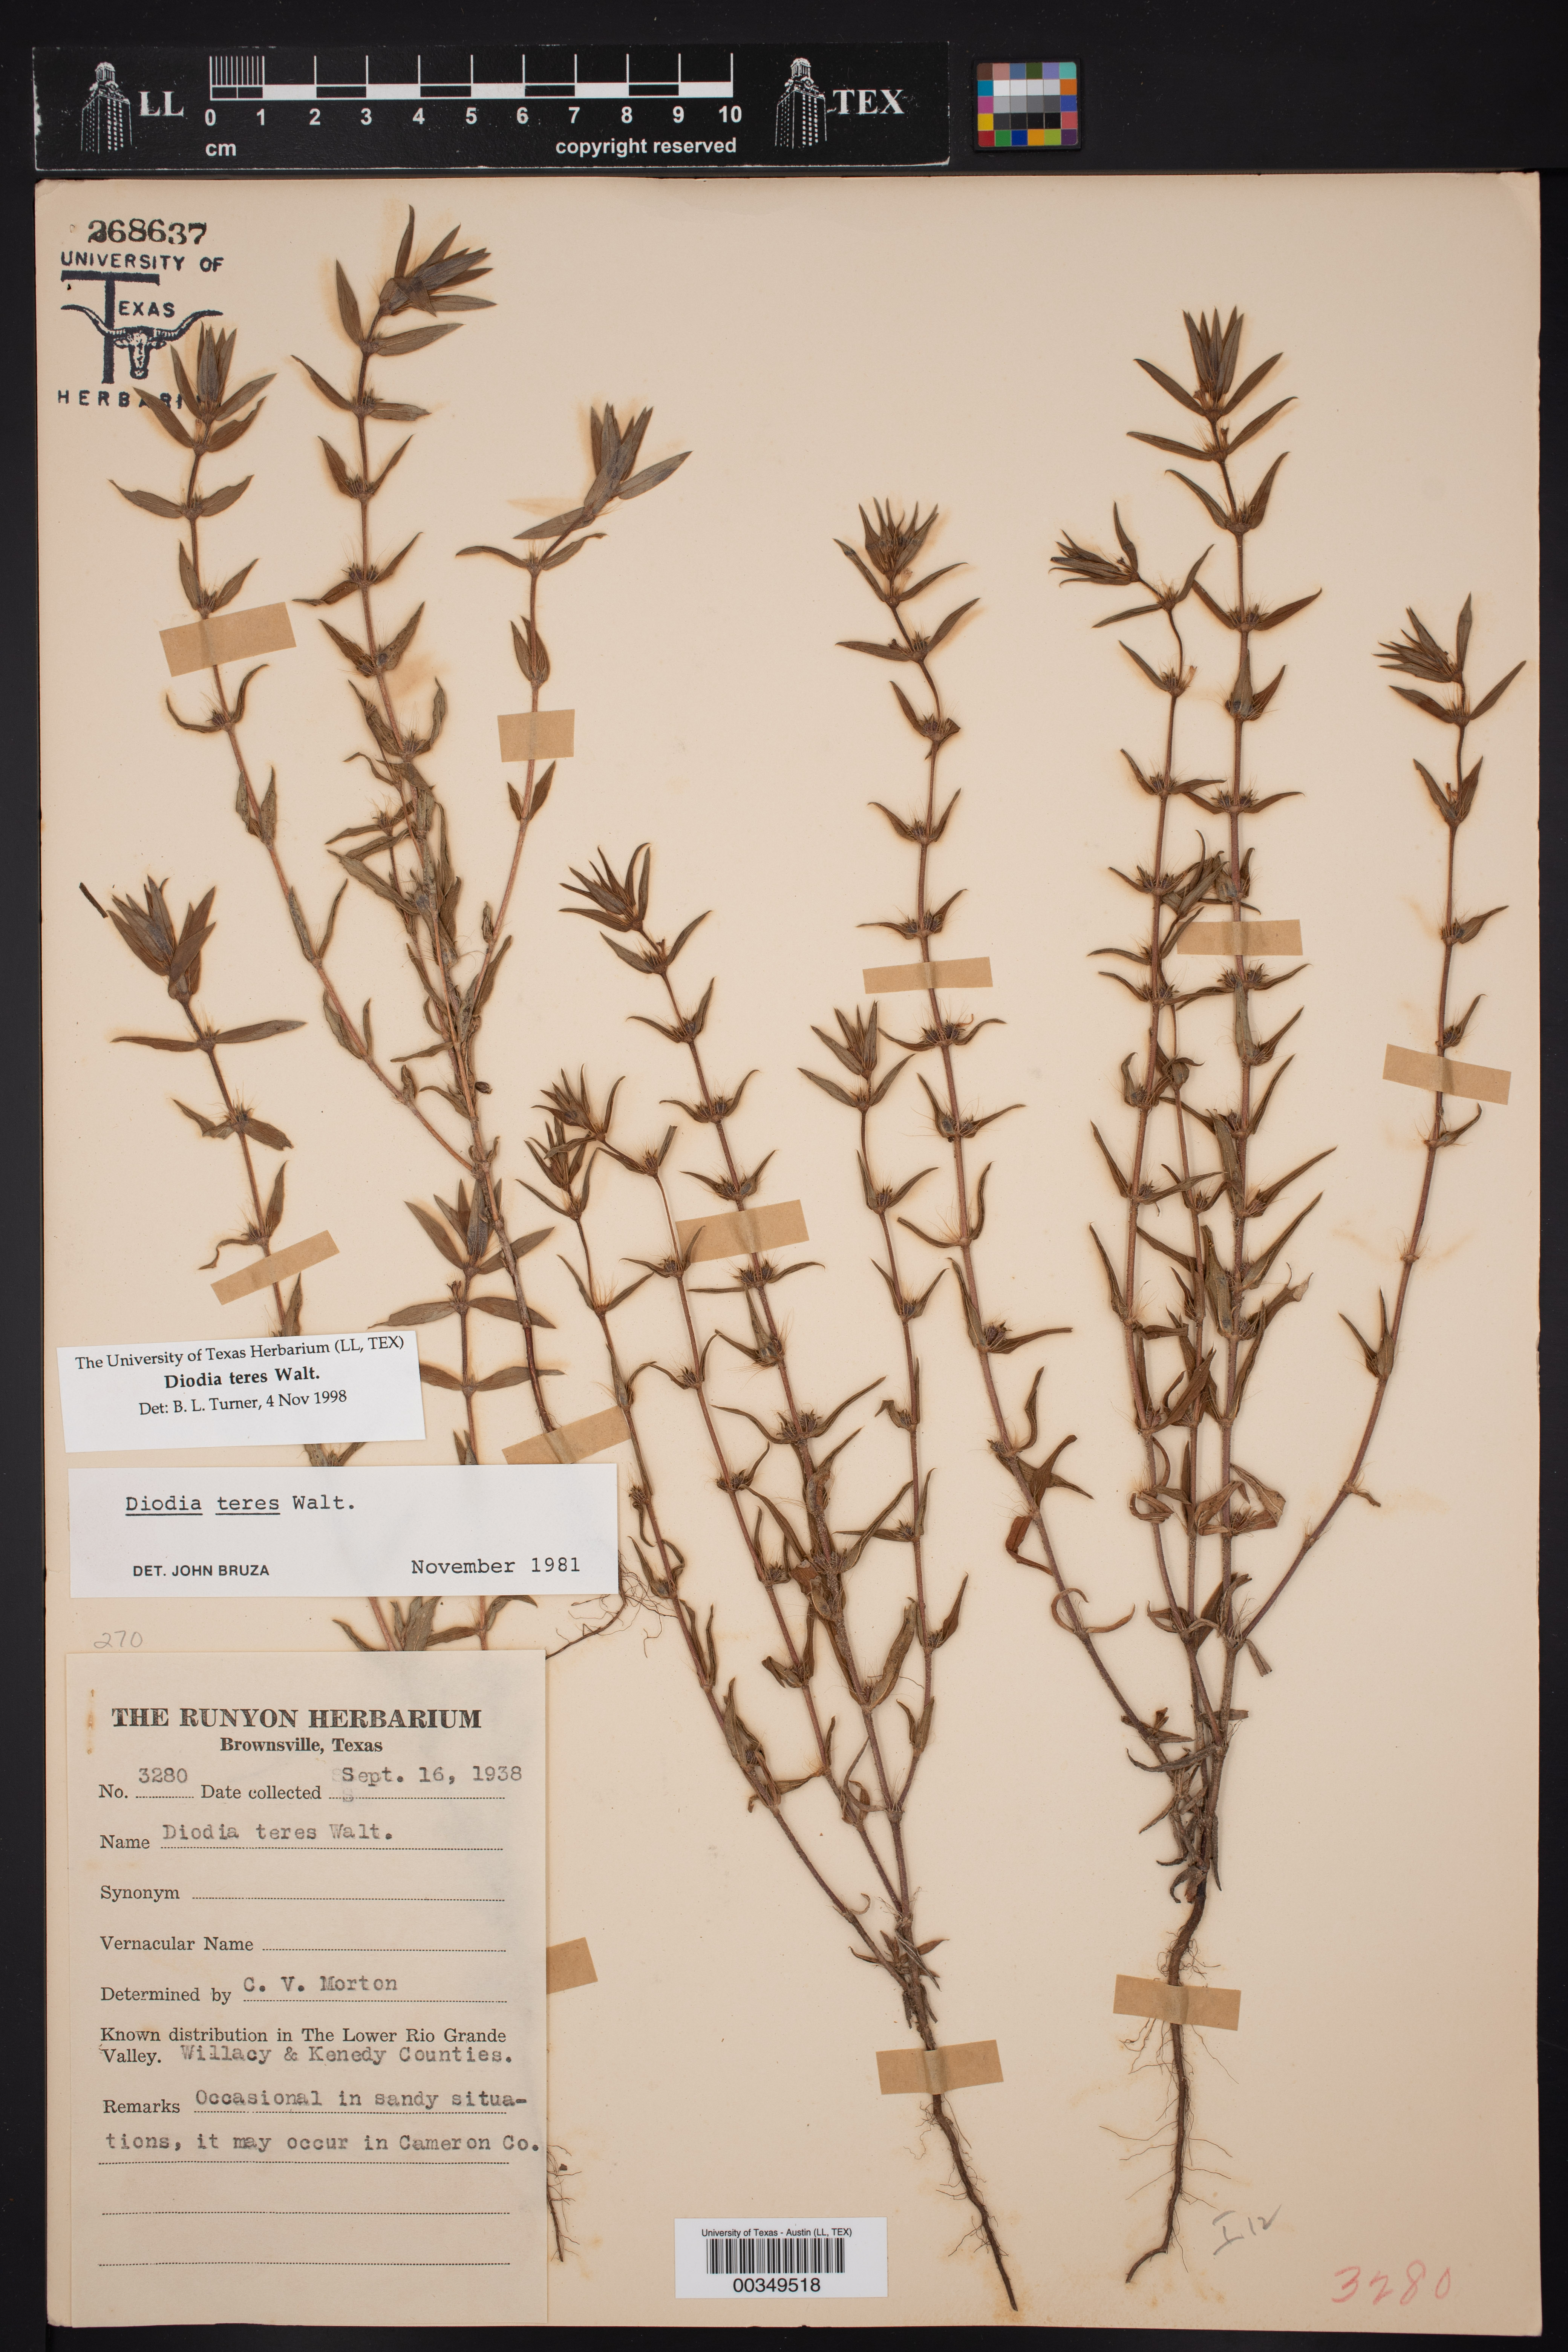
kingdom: Plantae
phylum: Tracheophyta
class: Magnoliopsida
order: Gentianales
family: Rubiaceae
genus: Hexasepalum
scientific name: Hexasepalum teres
